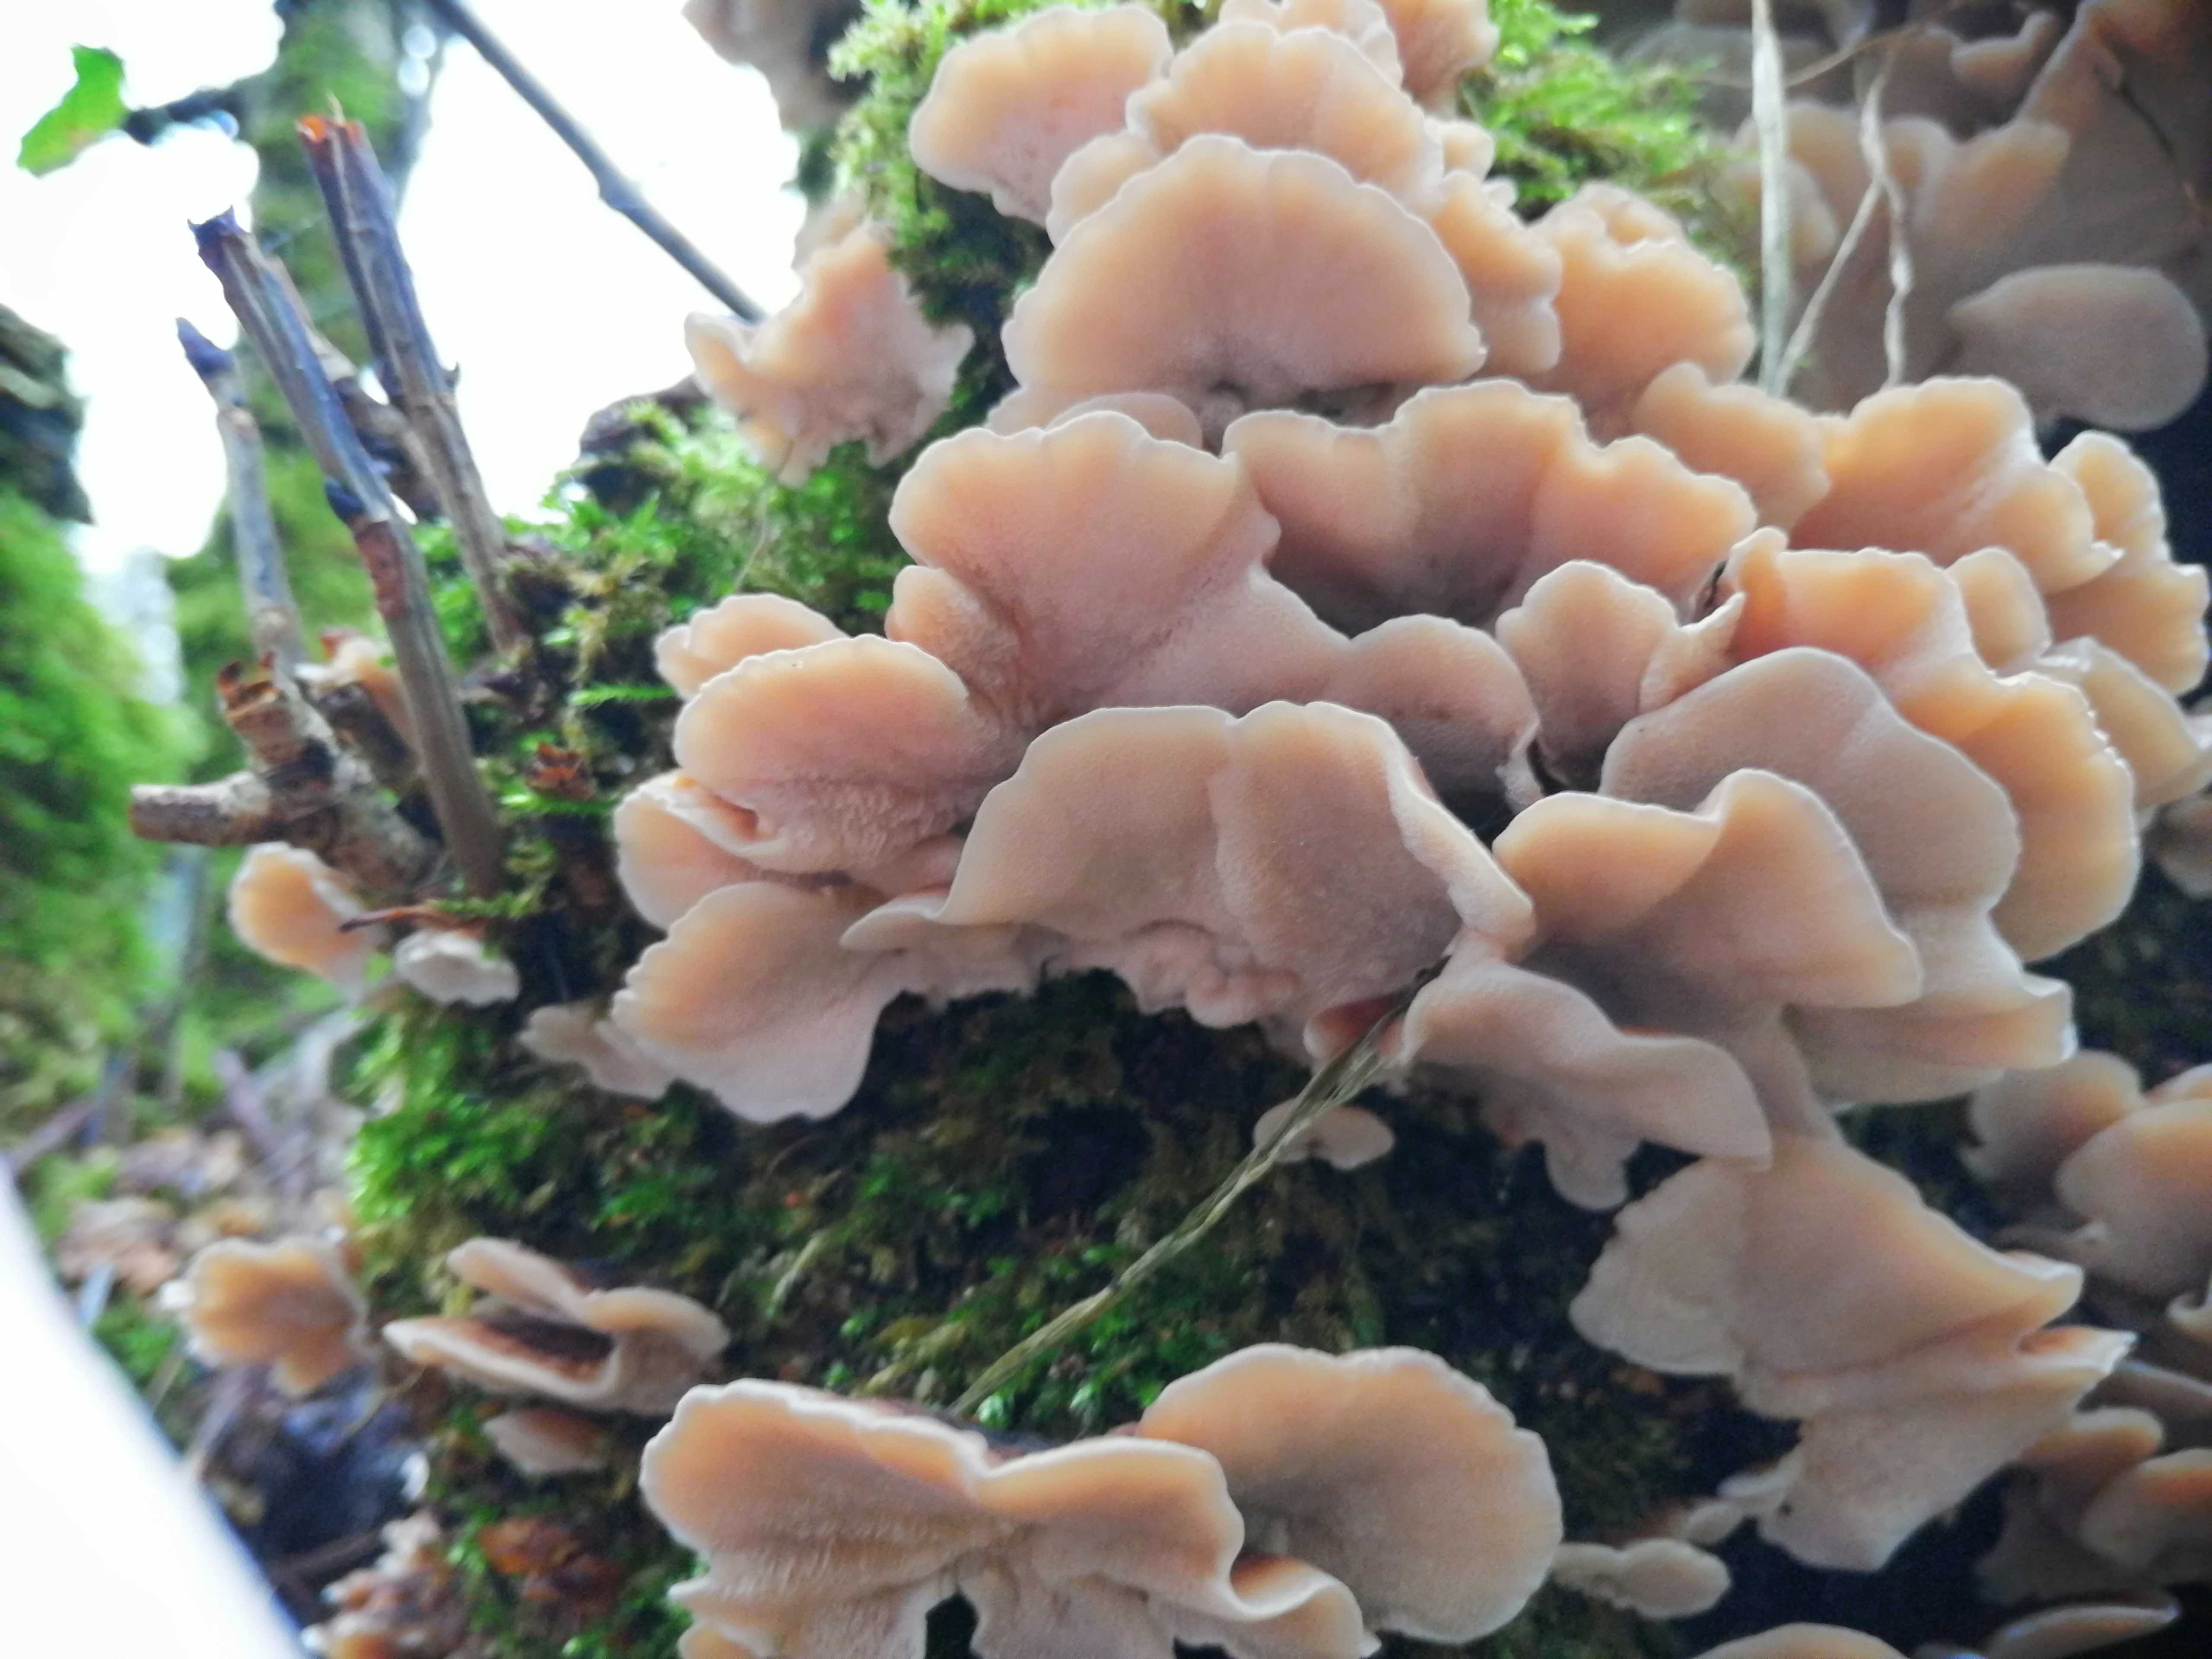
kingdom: Fungi
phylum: Basidiomycota
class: Agaricomycetes
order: Polyporales
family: Polyporaceae
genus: Trametes
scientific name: Trametes versicolor
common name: broget læderporesvamp
